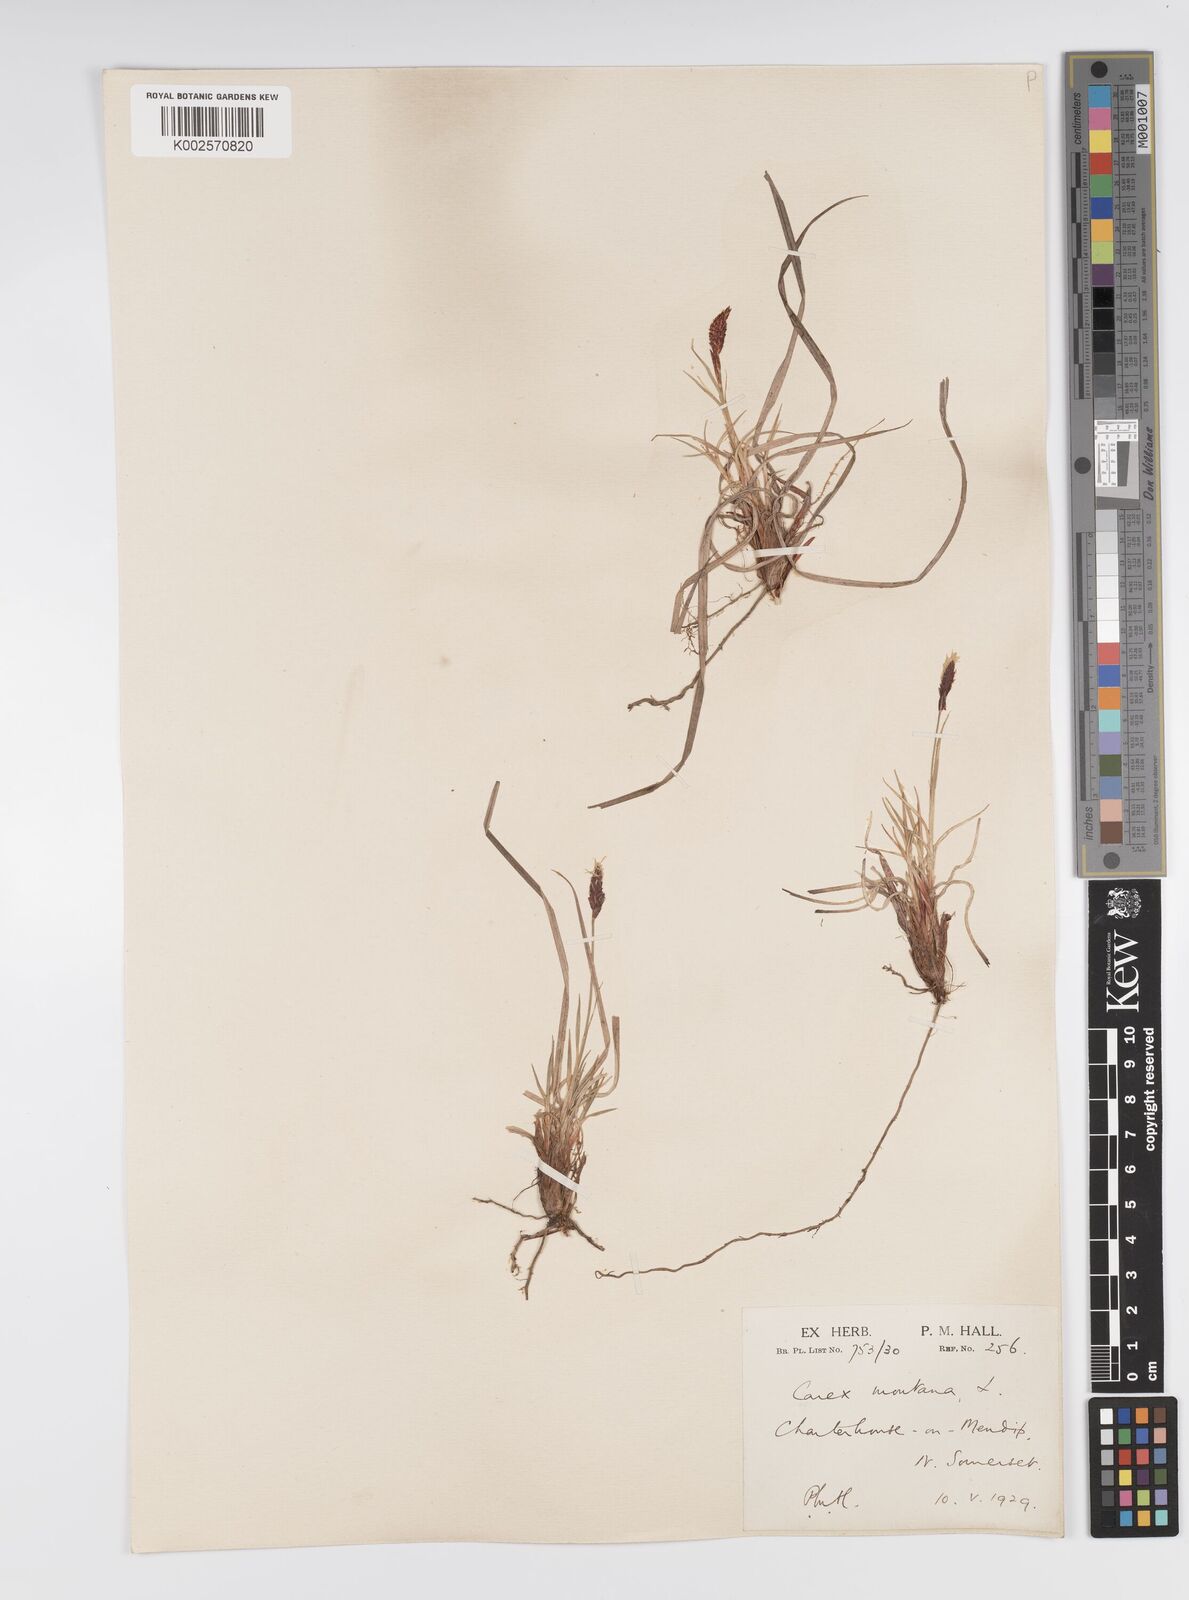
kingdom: Plantae
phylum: Tracheophyta
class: Liliopsida
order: Poales
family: Cyperaceae
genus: Carex
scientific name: Carex montana
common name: Soft-leaved sedge
